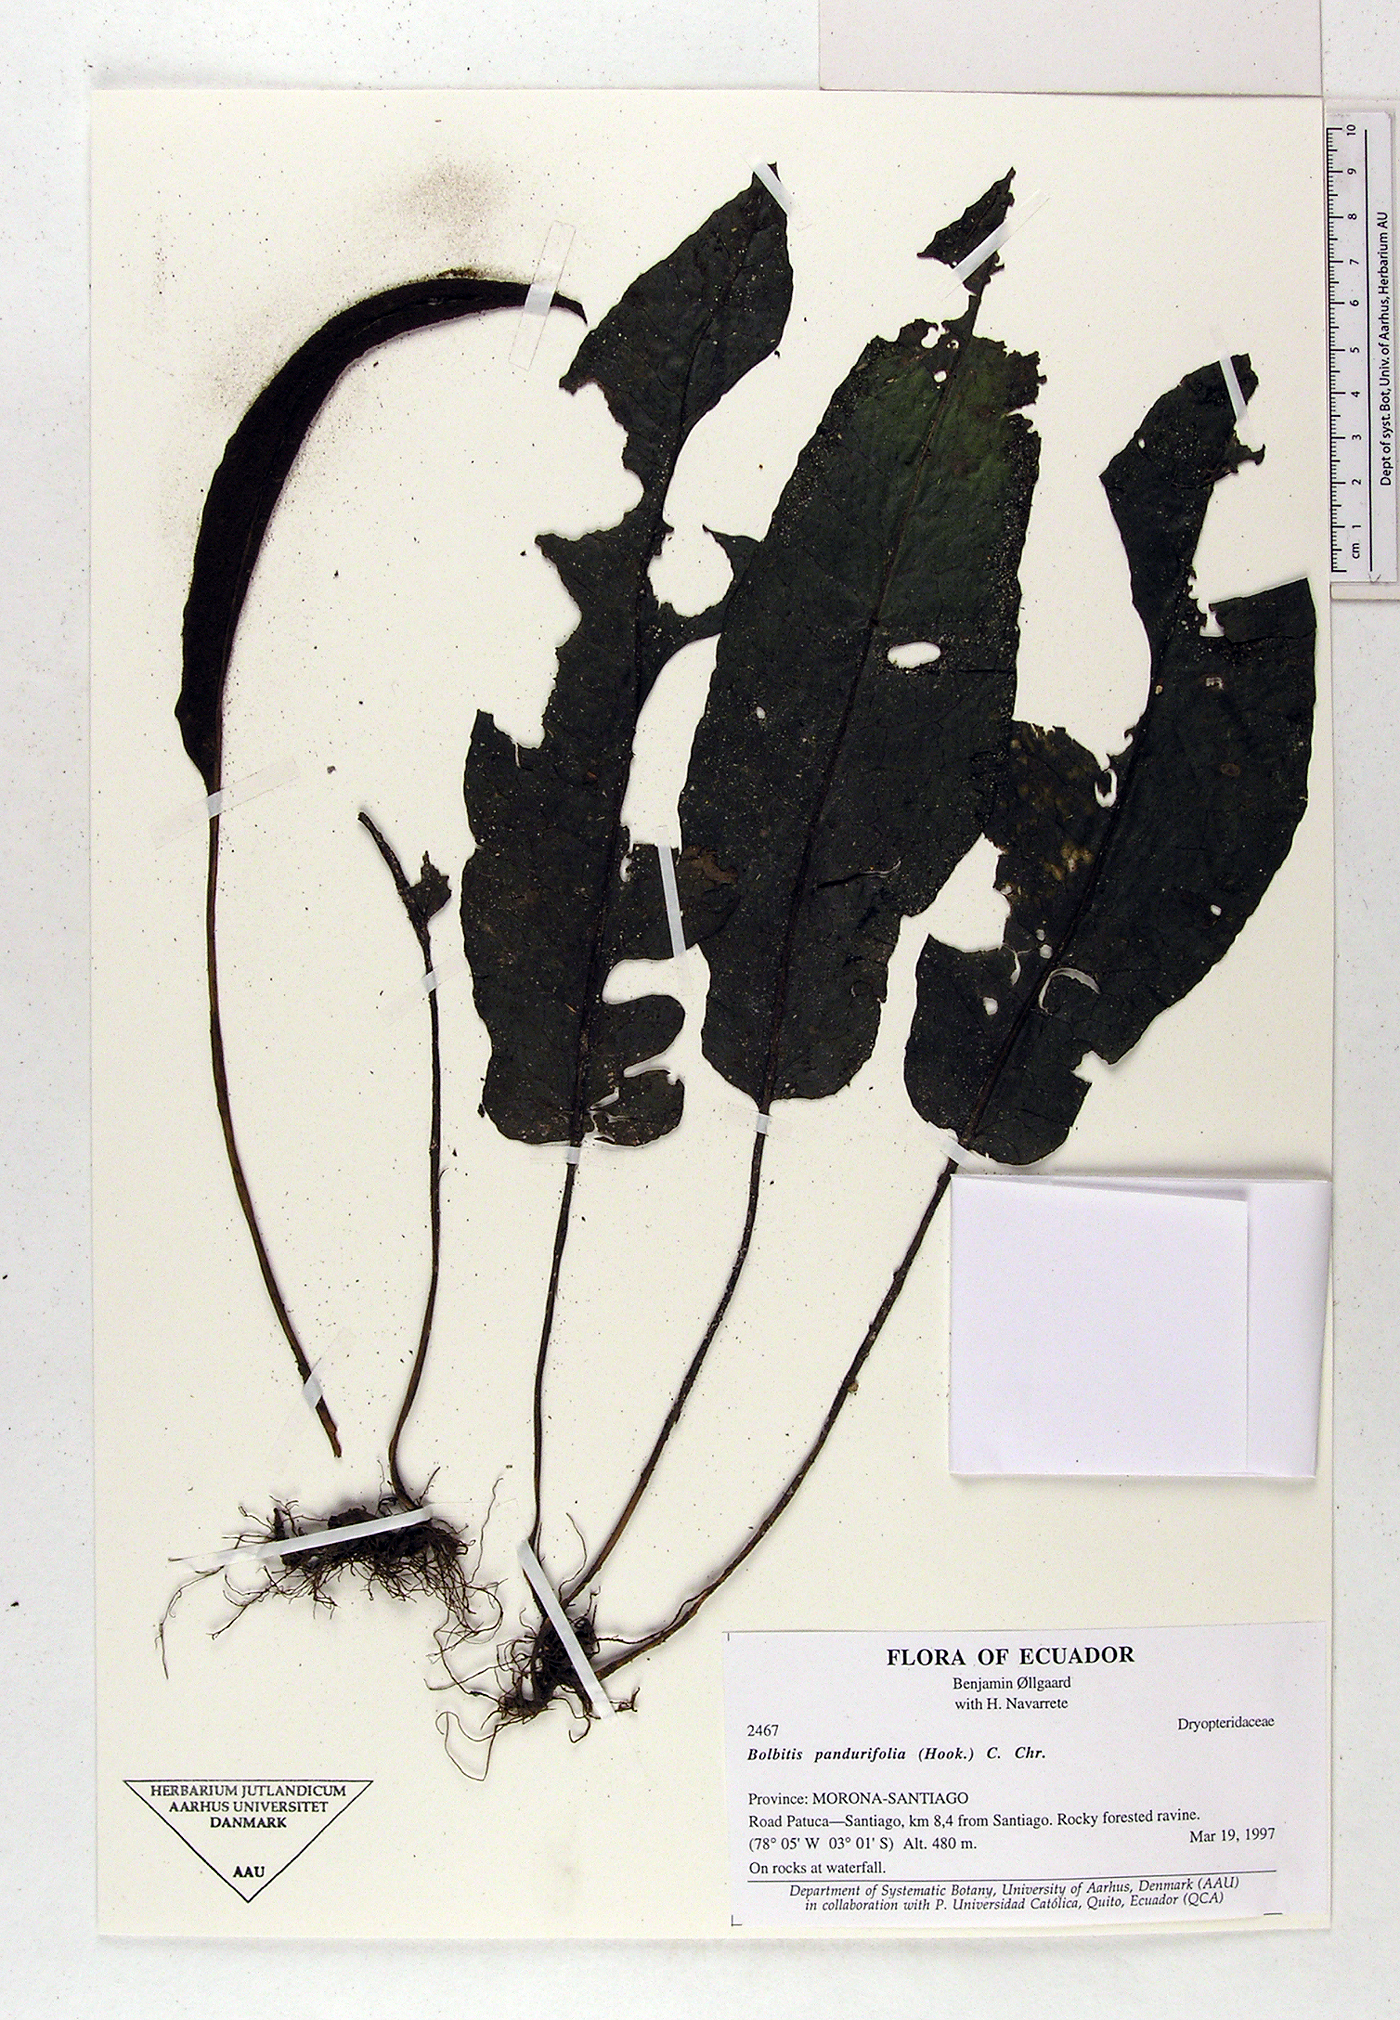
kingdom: Plantae
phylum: Tracheophyta
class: Polypodiopsida
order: Polypodiales
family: Dryopteridaceae
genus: Bolbitis
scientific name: Bolbitis pandurifolia
